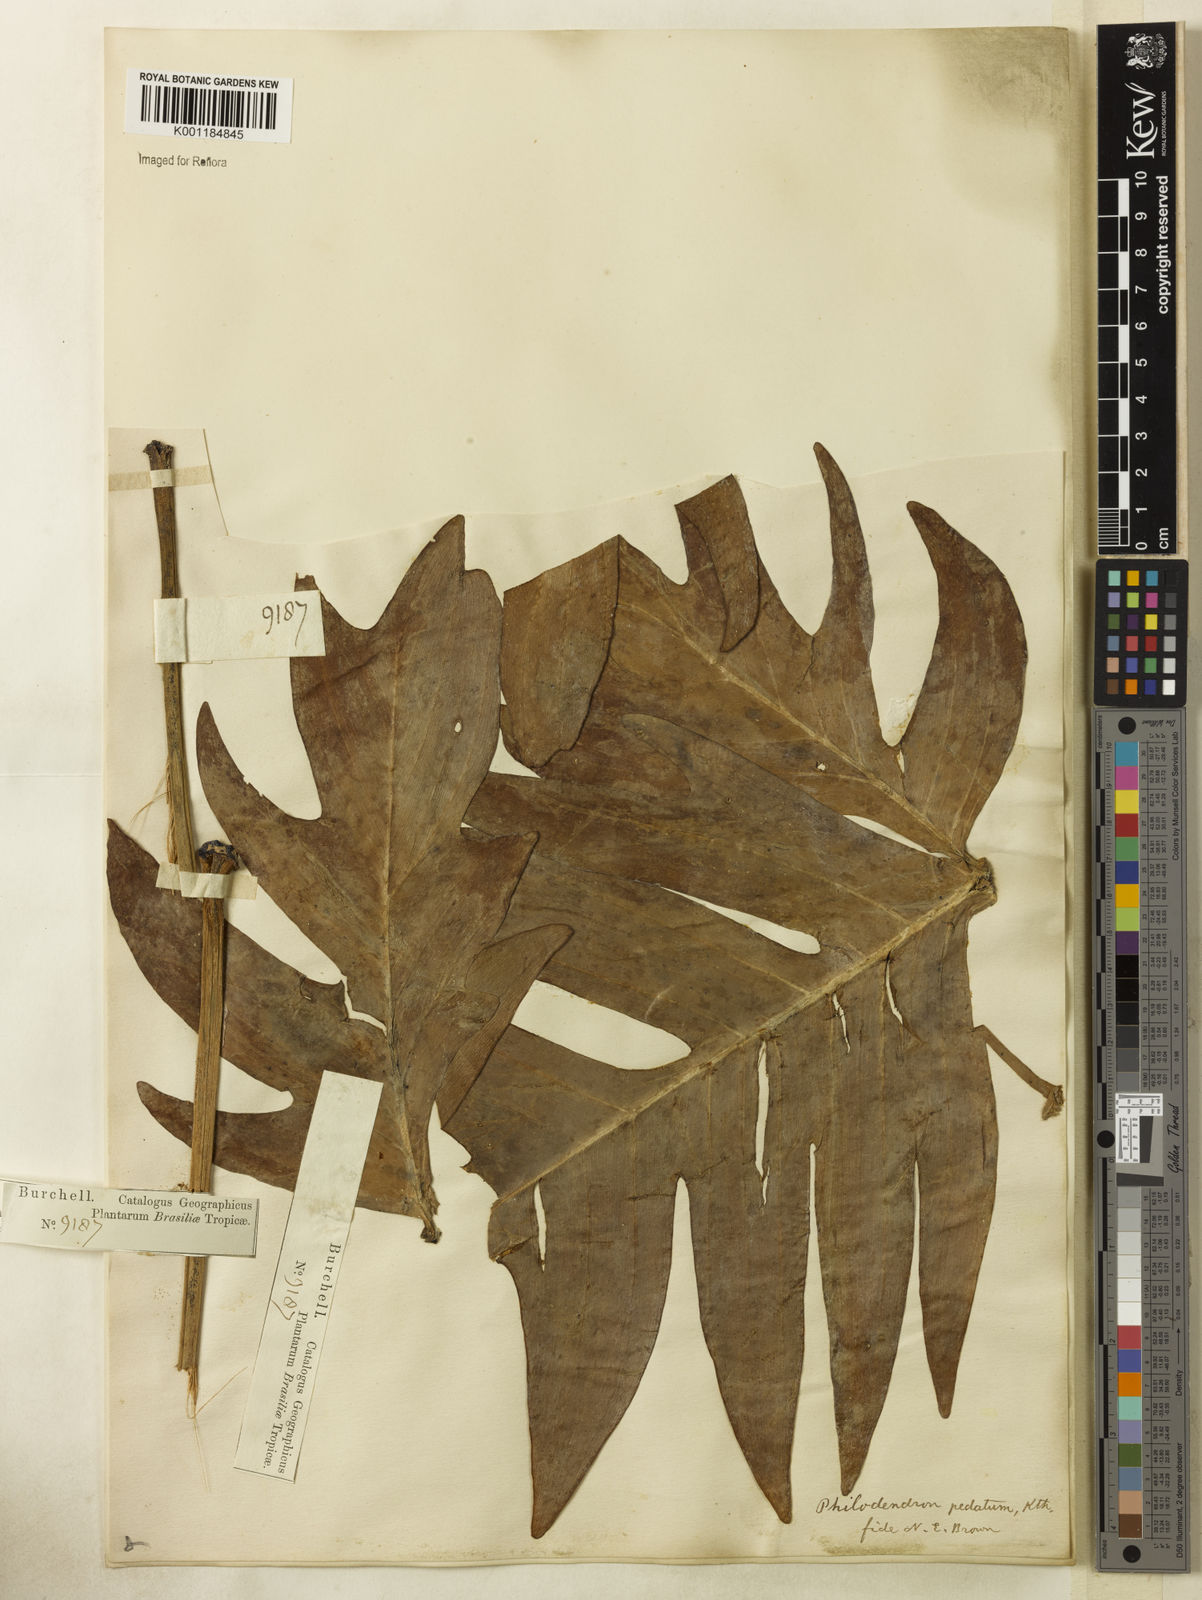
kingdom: Plantae
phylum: Tracheophyta
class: Liliopsida
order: Alismatales
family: Araceae
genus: Philodendron
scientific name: Philodendron pedatum
